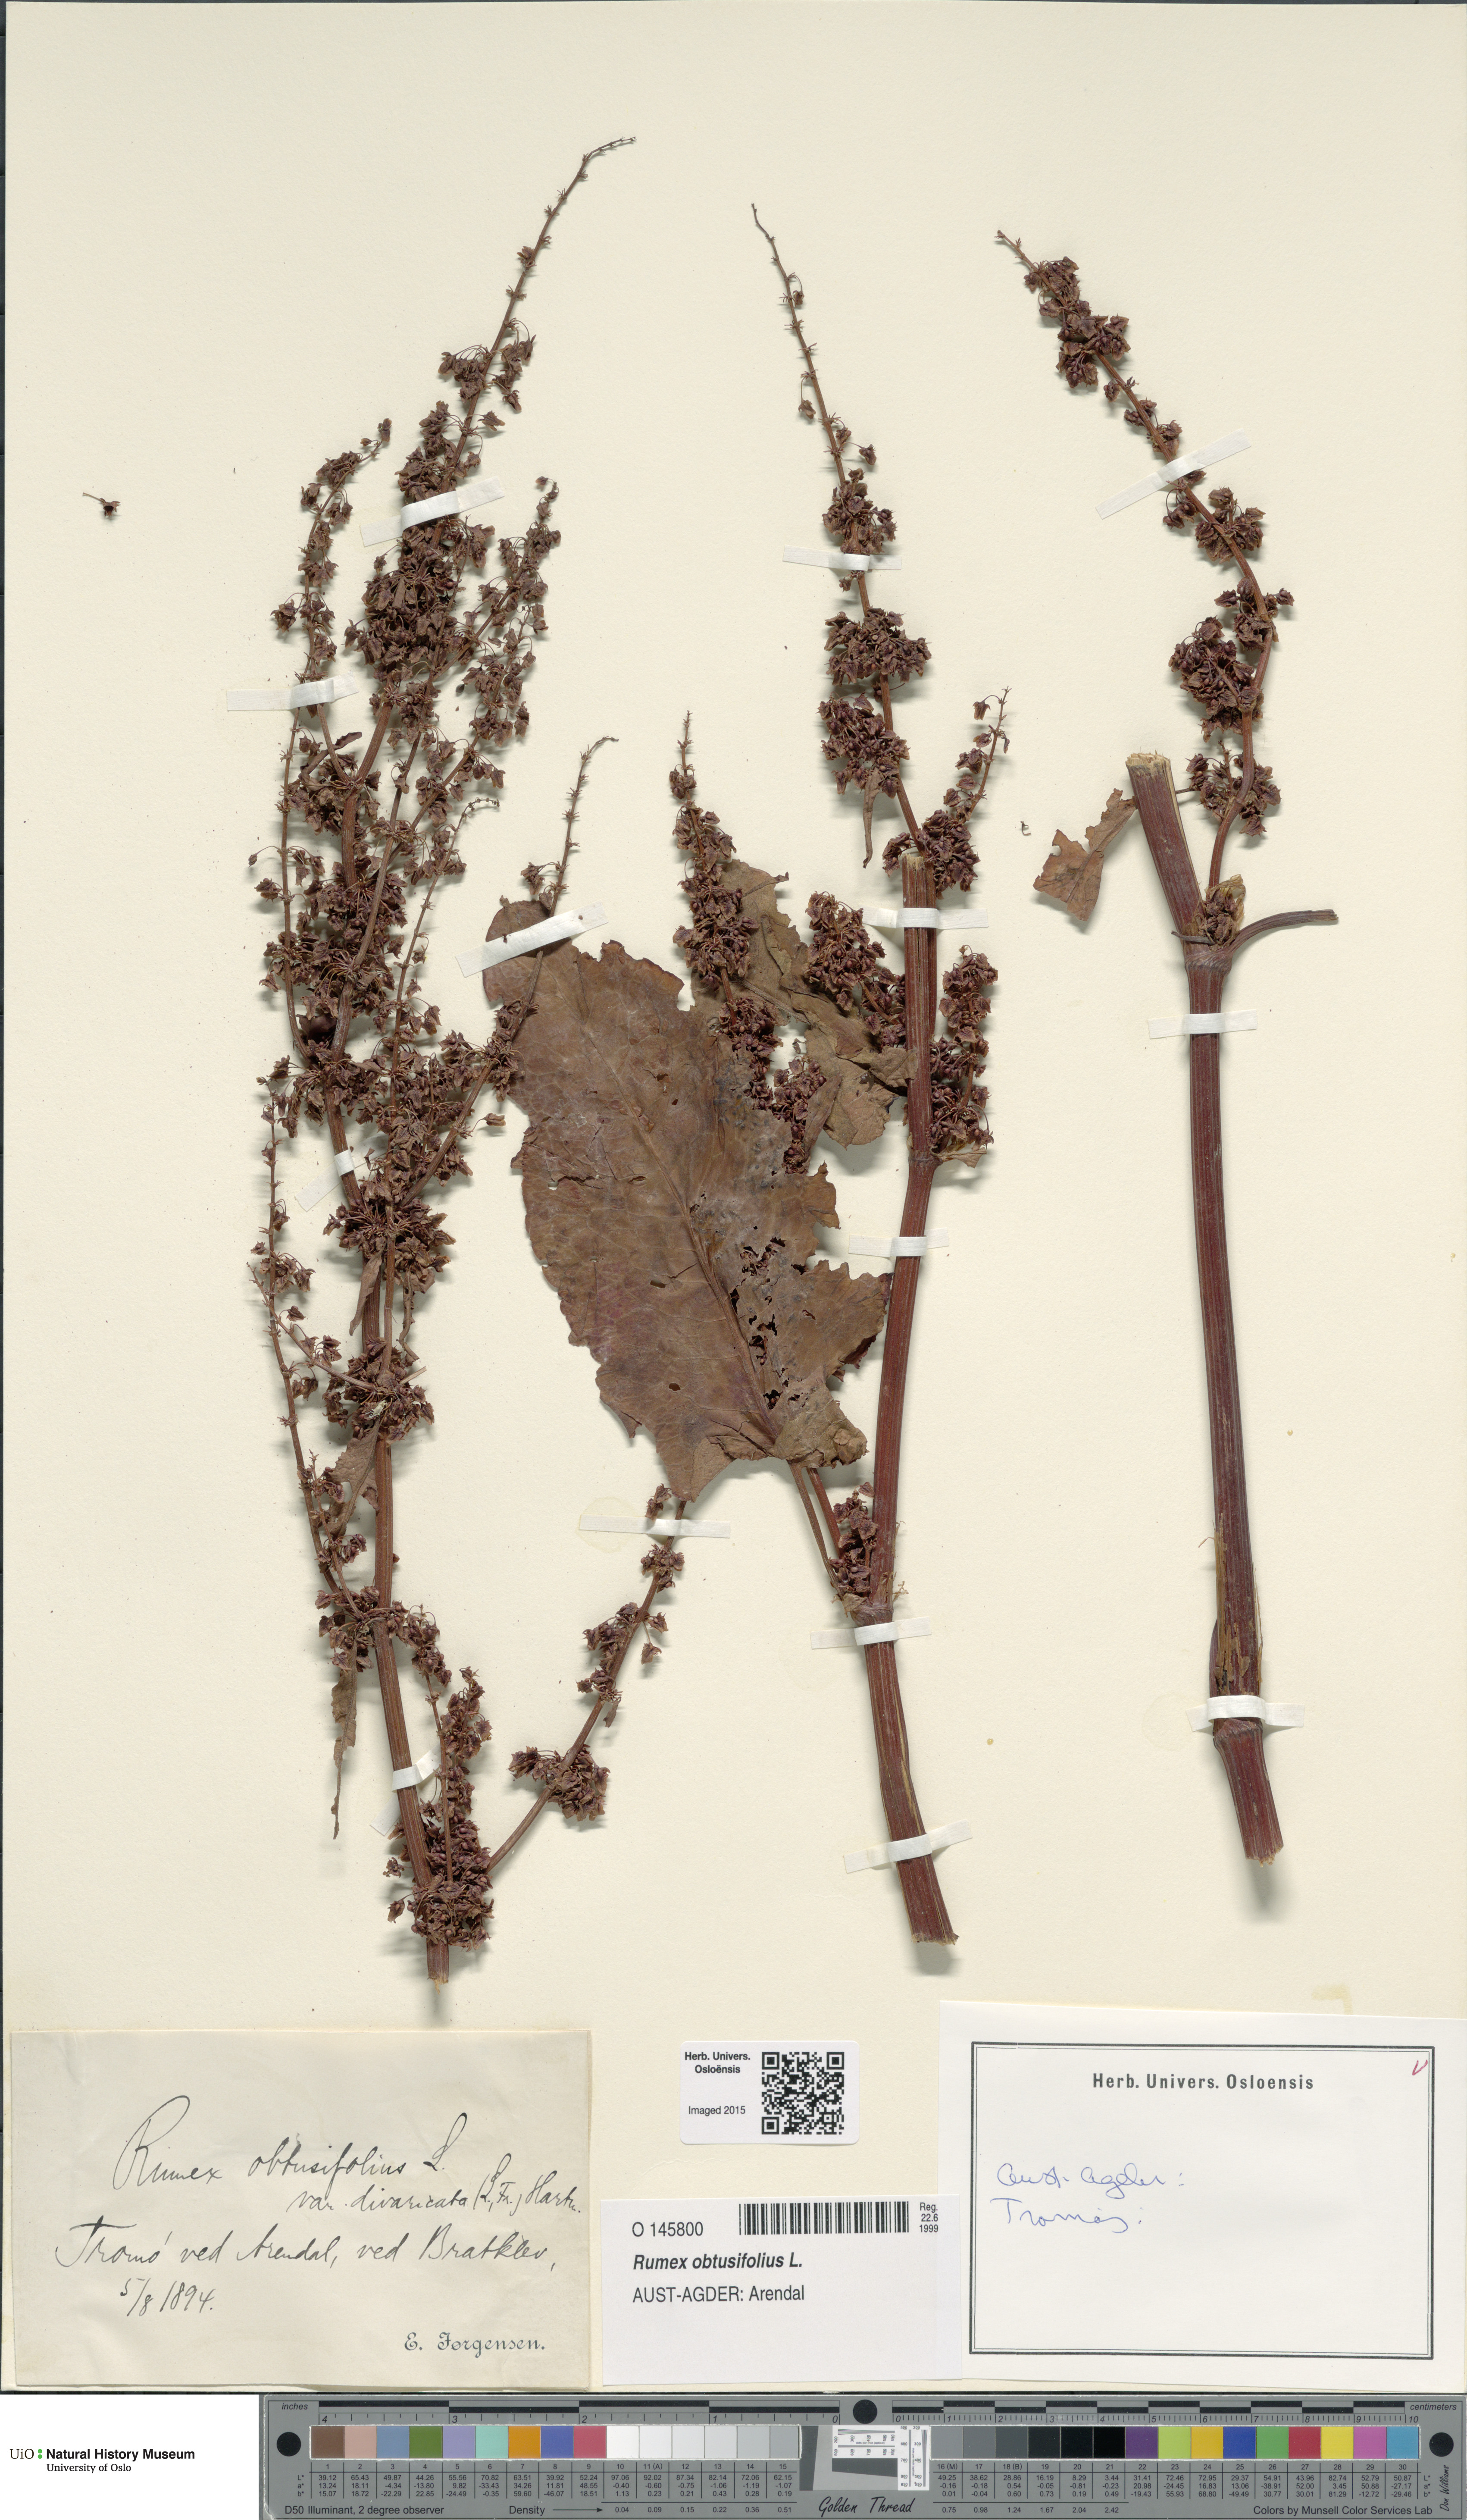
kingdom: Plantae
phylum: Tracheophyta
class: Magnoliopsida
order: Caryophyllales
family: Polygonaceae
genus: Rumex
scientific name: Rumex obtusifolius
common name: Bitter dock
